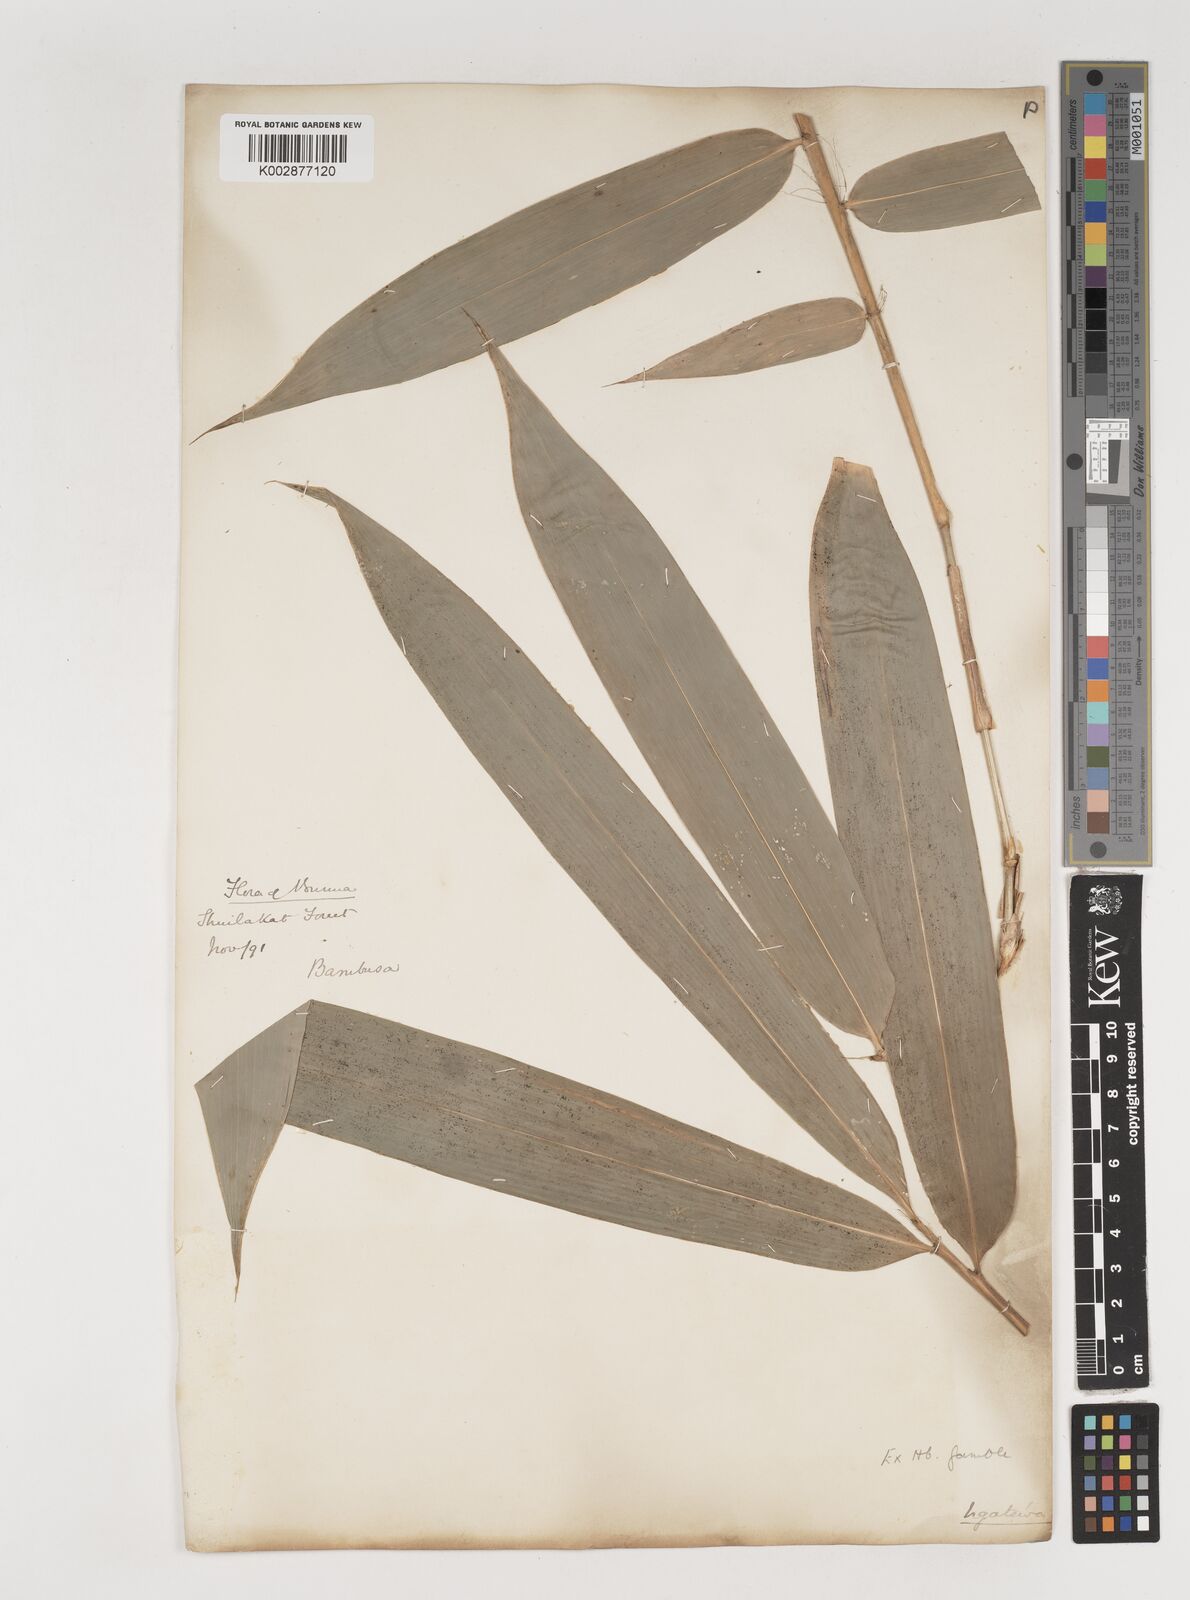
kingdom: Plantae
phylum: Tracheophyta
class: Liliopsida
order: Poales
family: Poaceae
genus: Bambusa
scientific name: Bambusa
